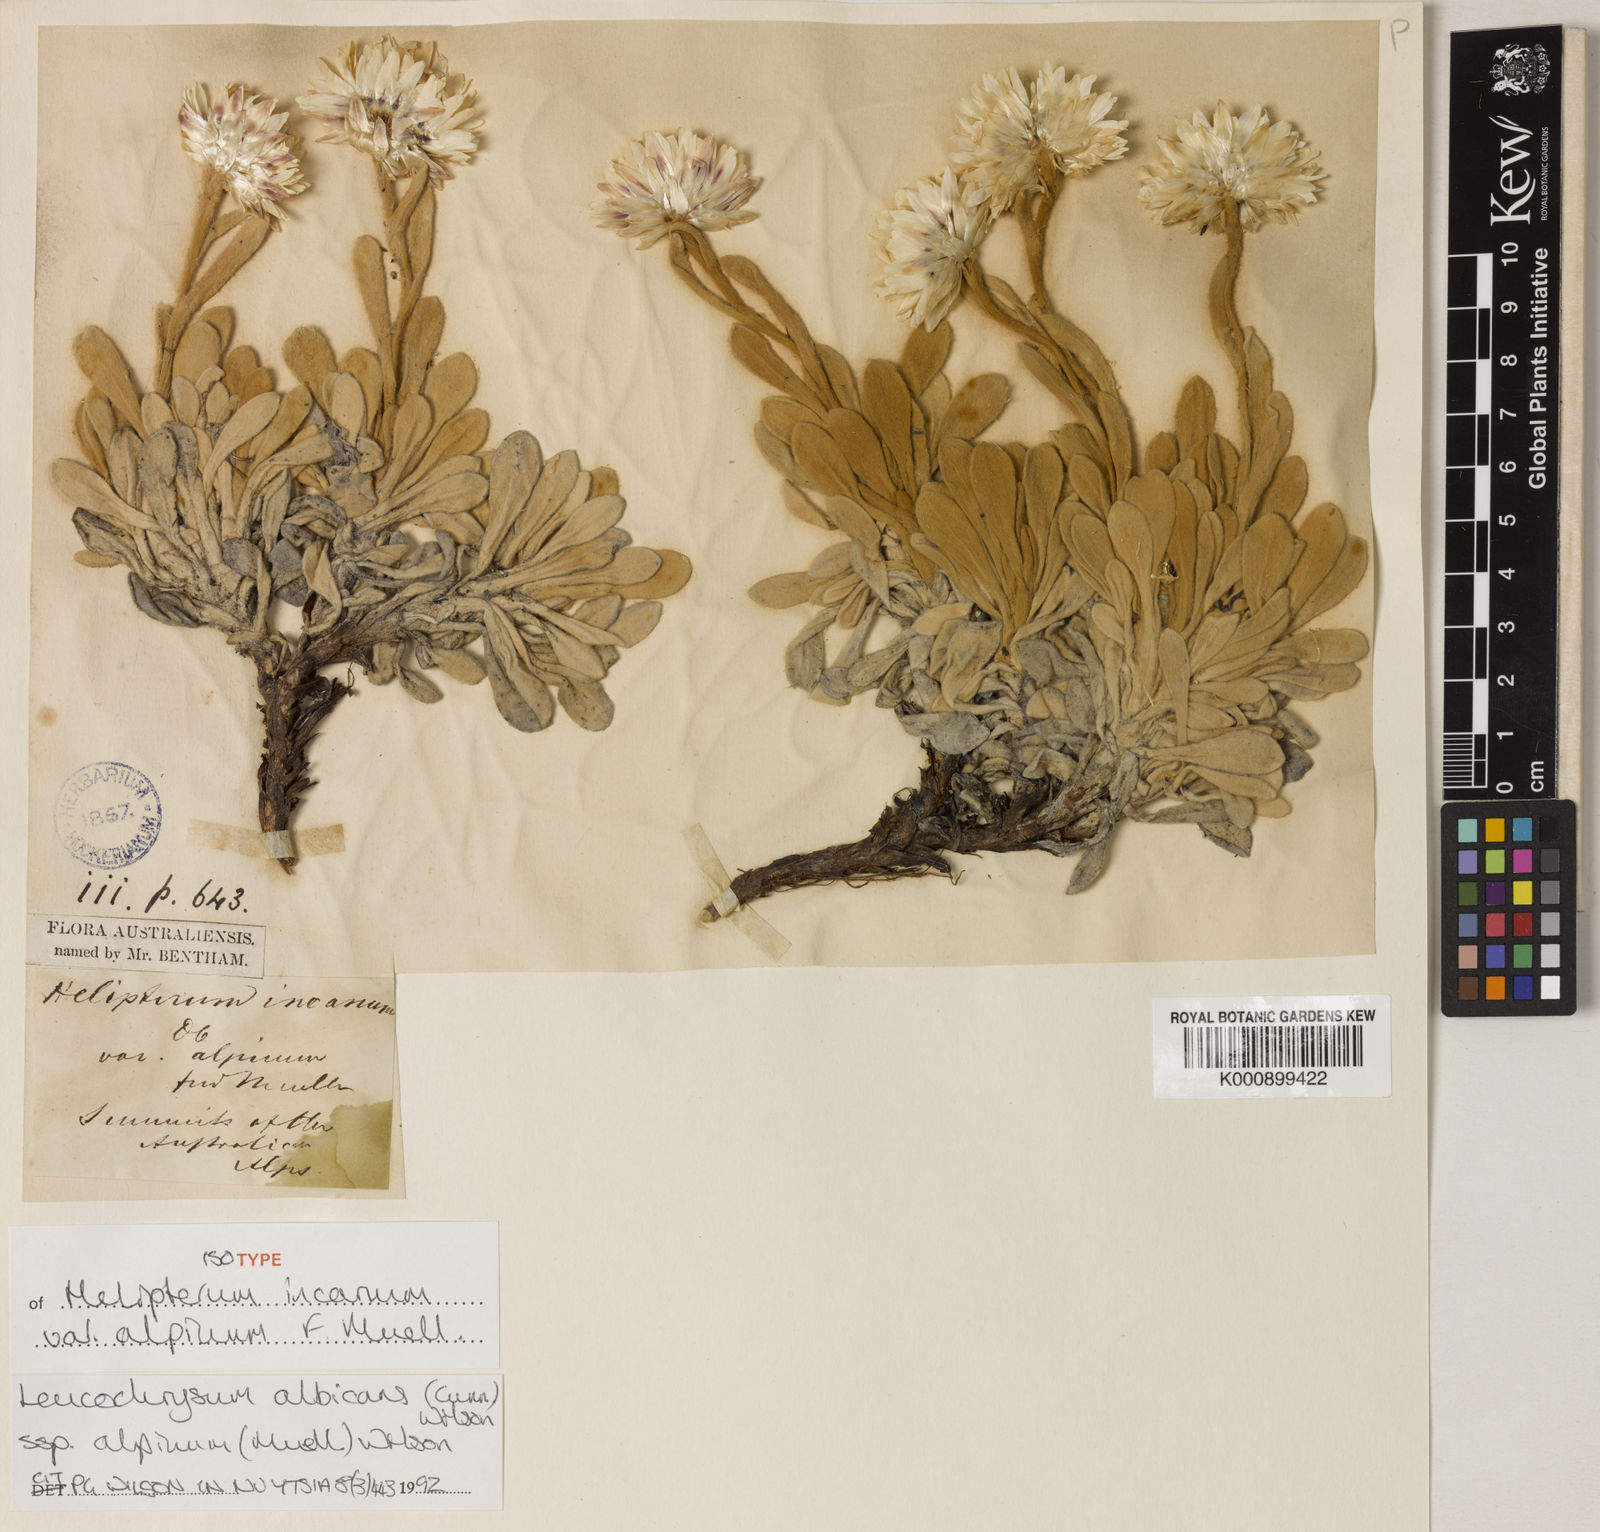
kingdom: Plantae
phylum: Tracheophyta
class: Magnoliopsida
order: Asterales
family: Asteraceae
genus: Leucochrysum
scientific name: Leucochrysum alpinum
